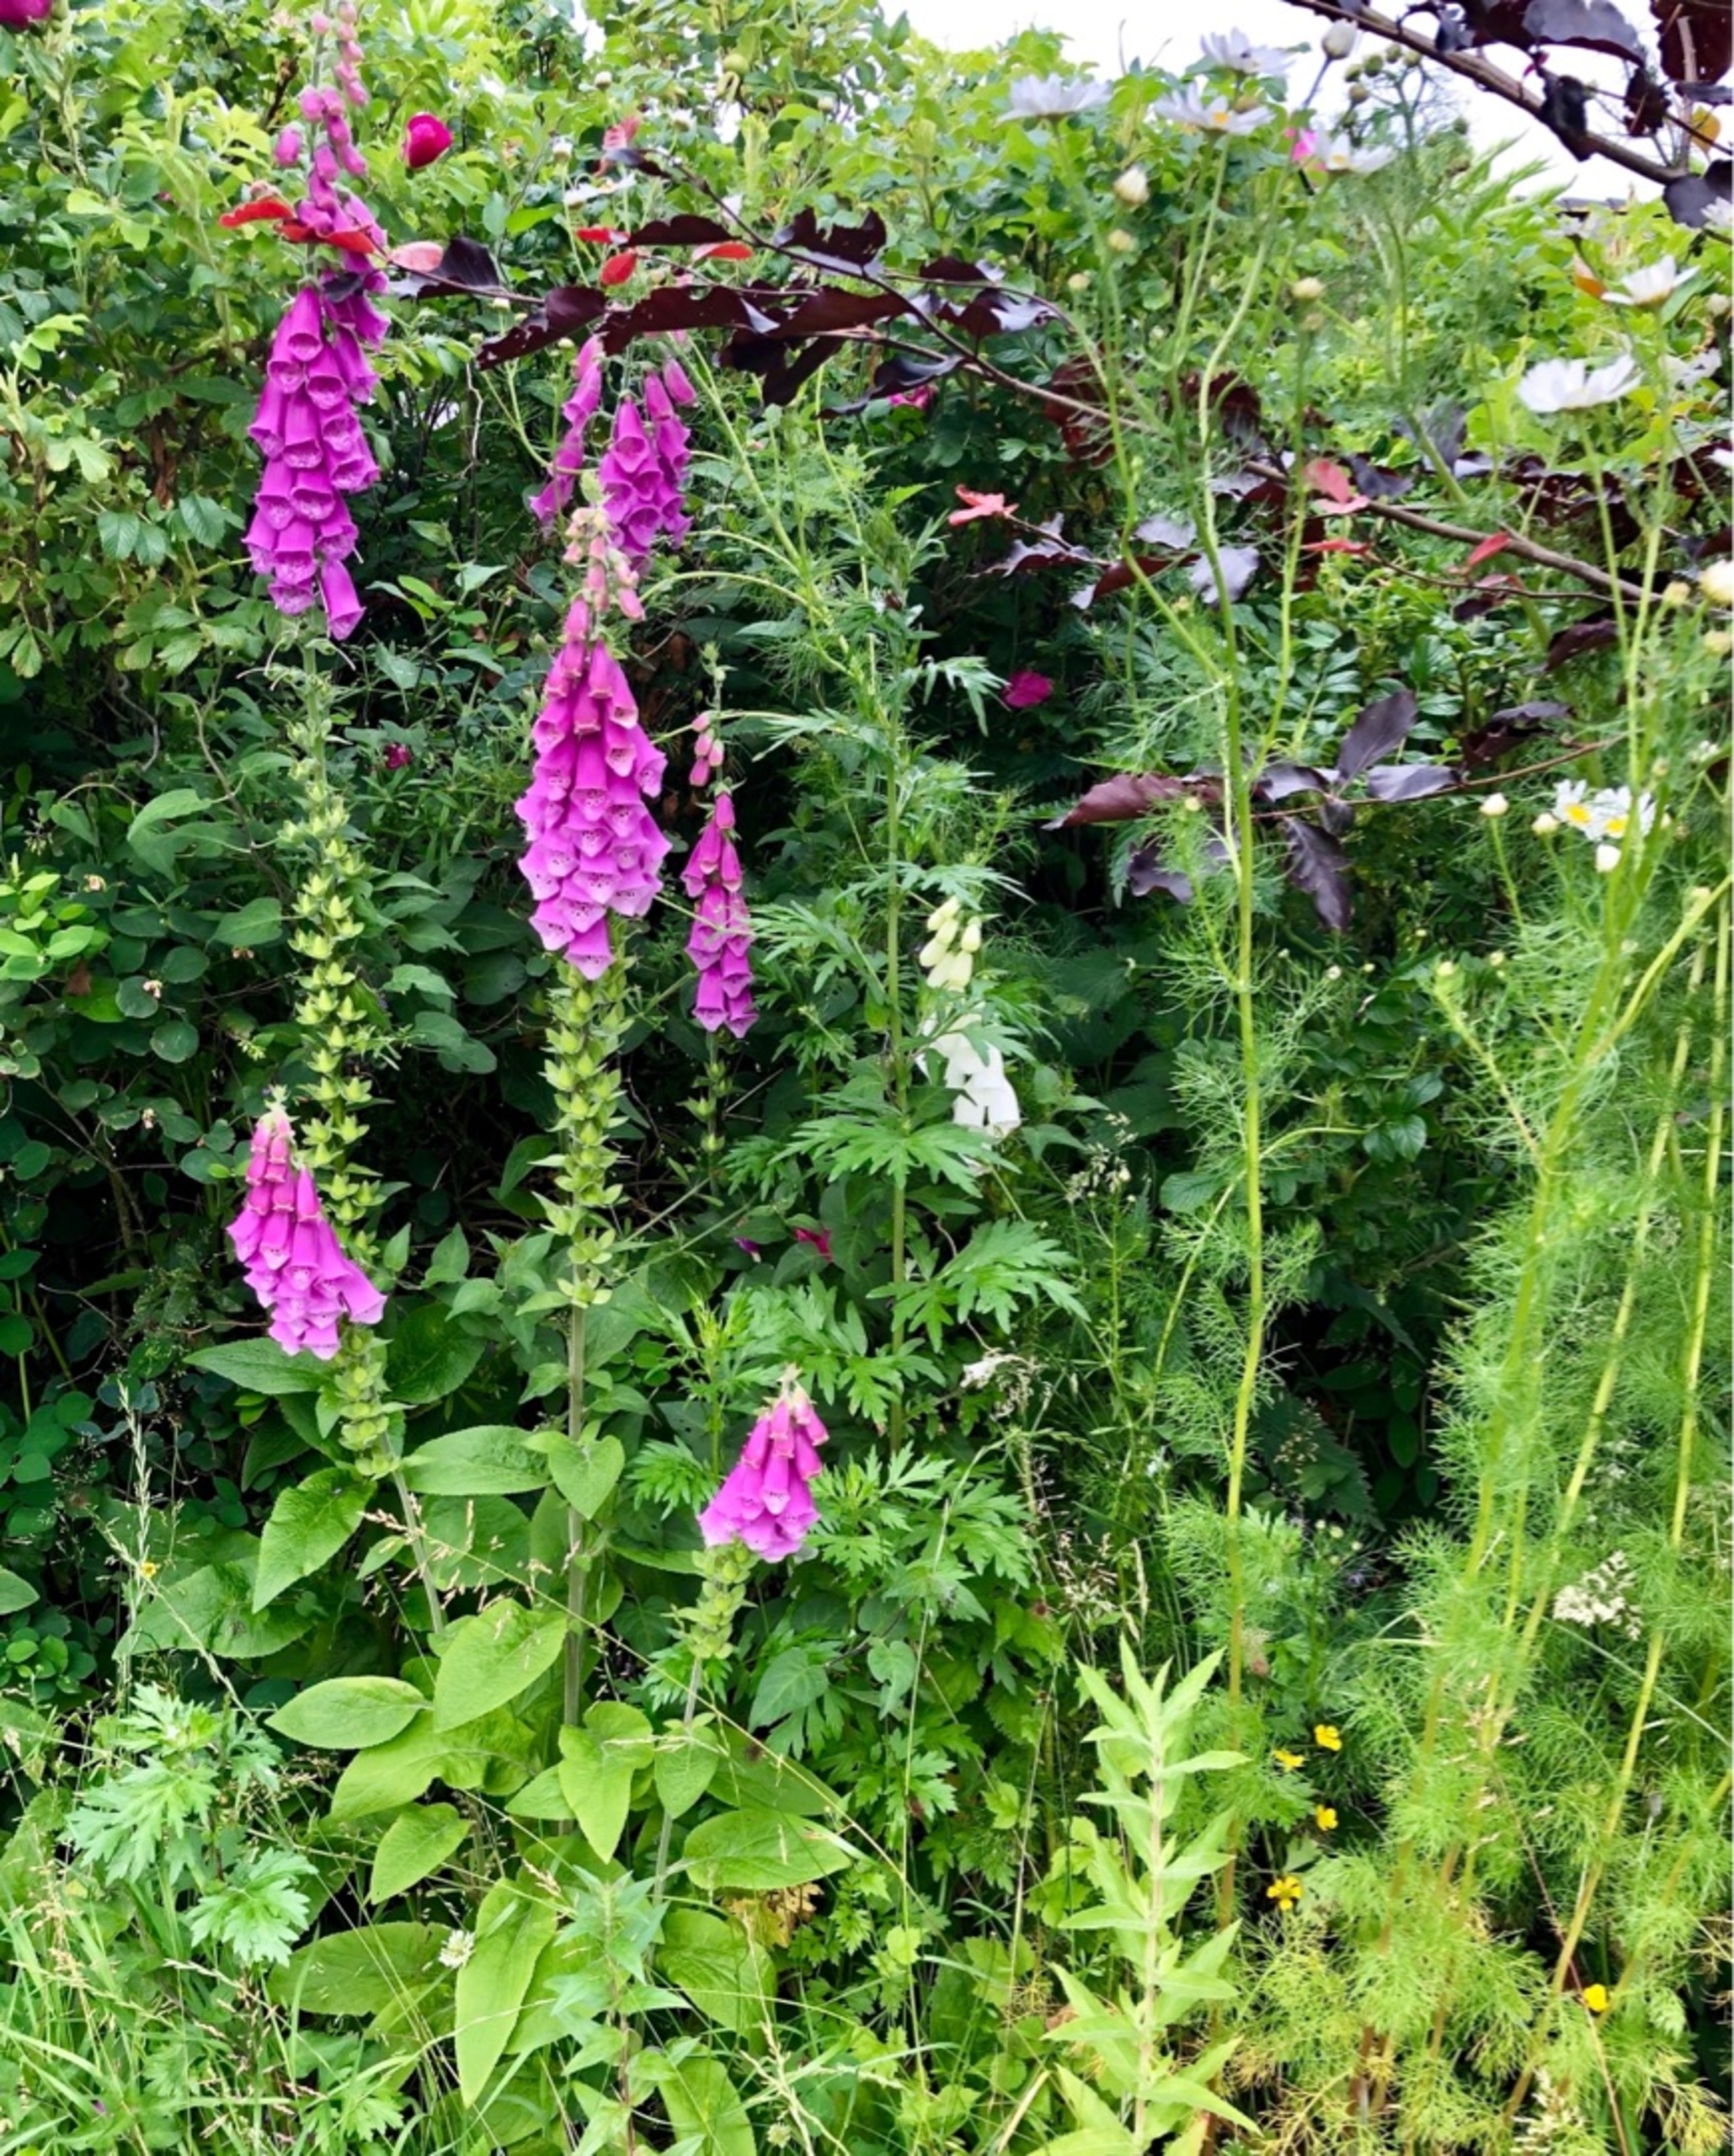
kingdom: Plantae
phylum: Tracheophyta
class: Magnoliopsida
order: Lamiales
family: Plantaginaceae
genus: Digitalis
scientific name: Digitalis purpurea
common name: Almindelig fingerbøl
